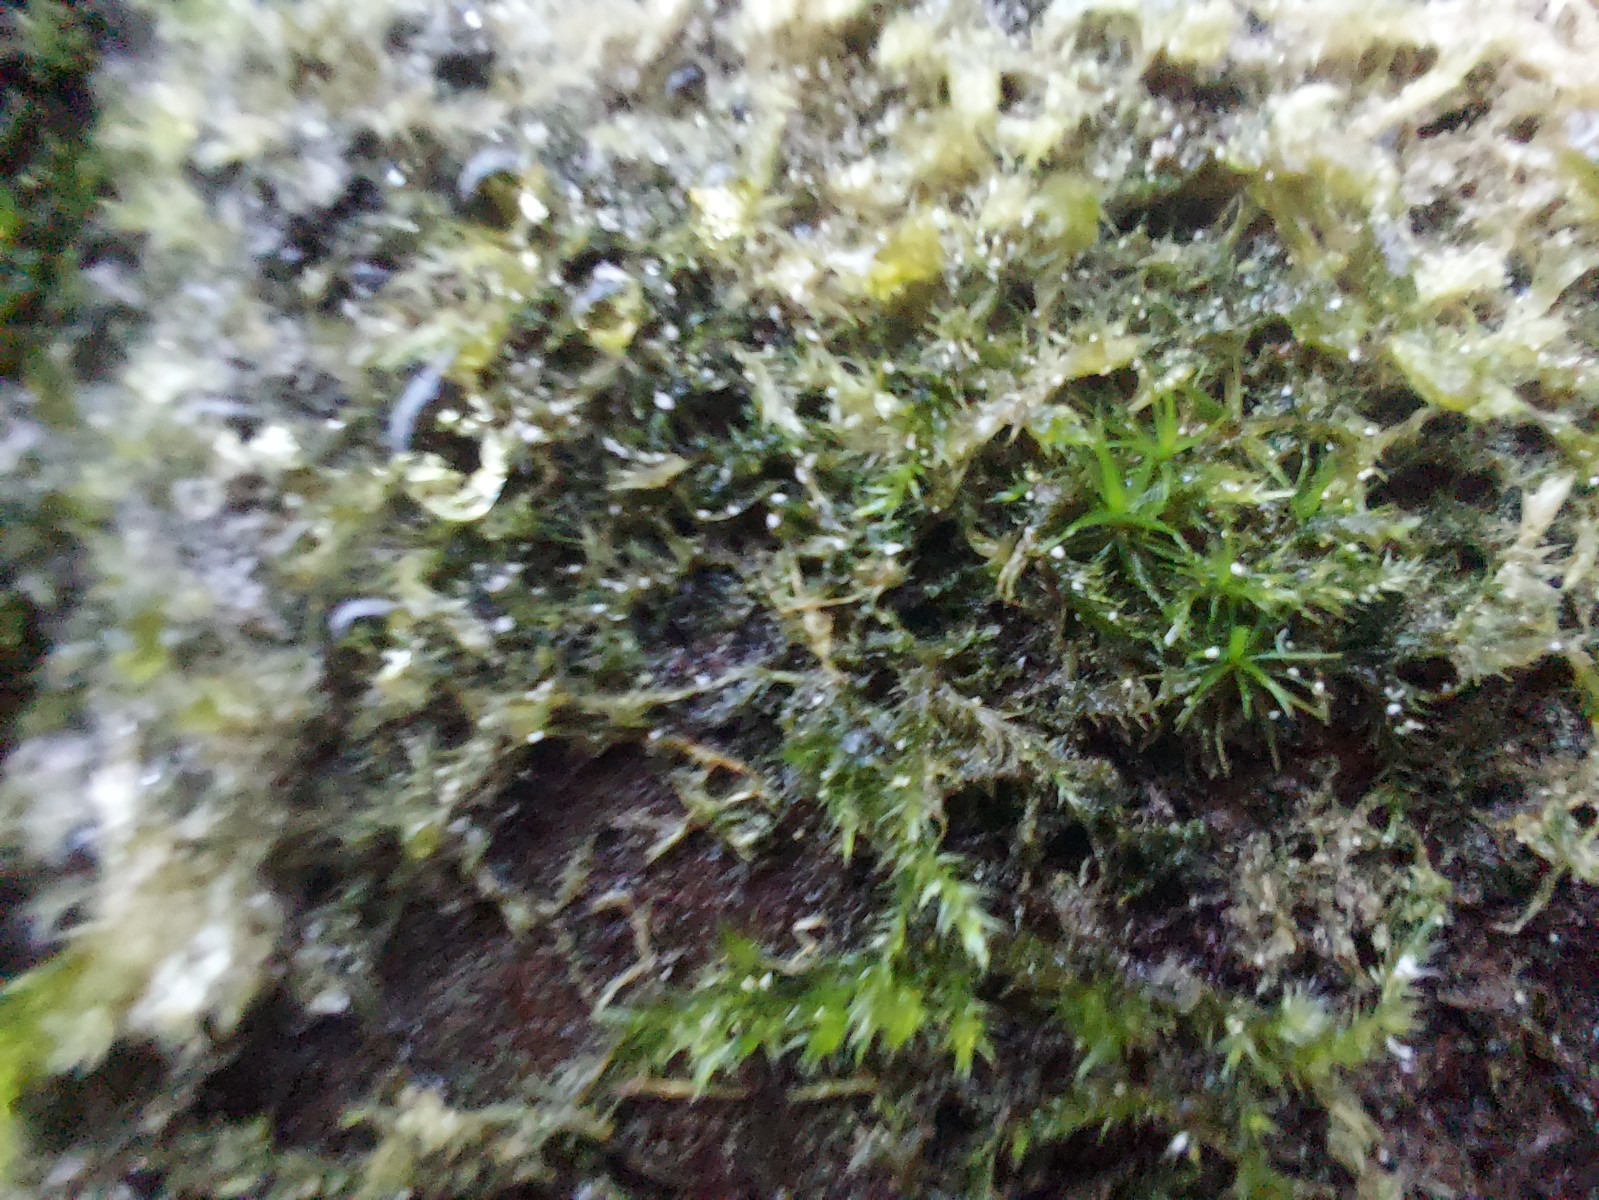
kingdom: Fungi
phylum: Basidiomycota
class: Agaricomycetes
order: Corticiales
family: Corticiaceae
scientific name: Corticiaceae
